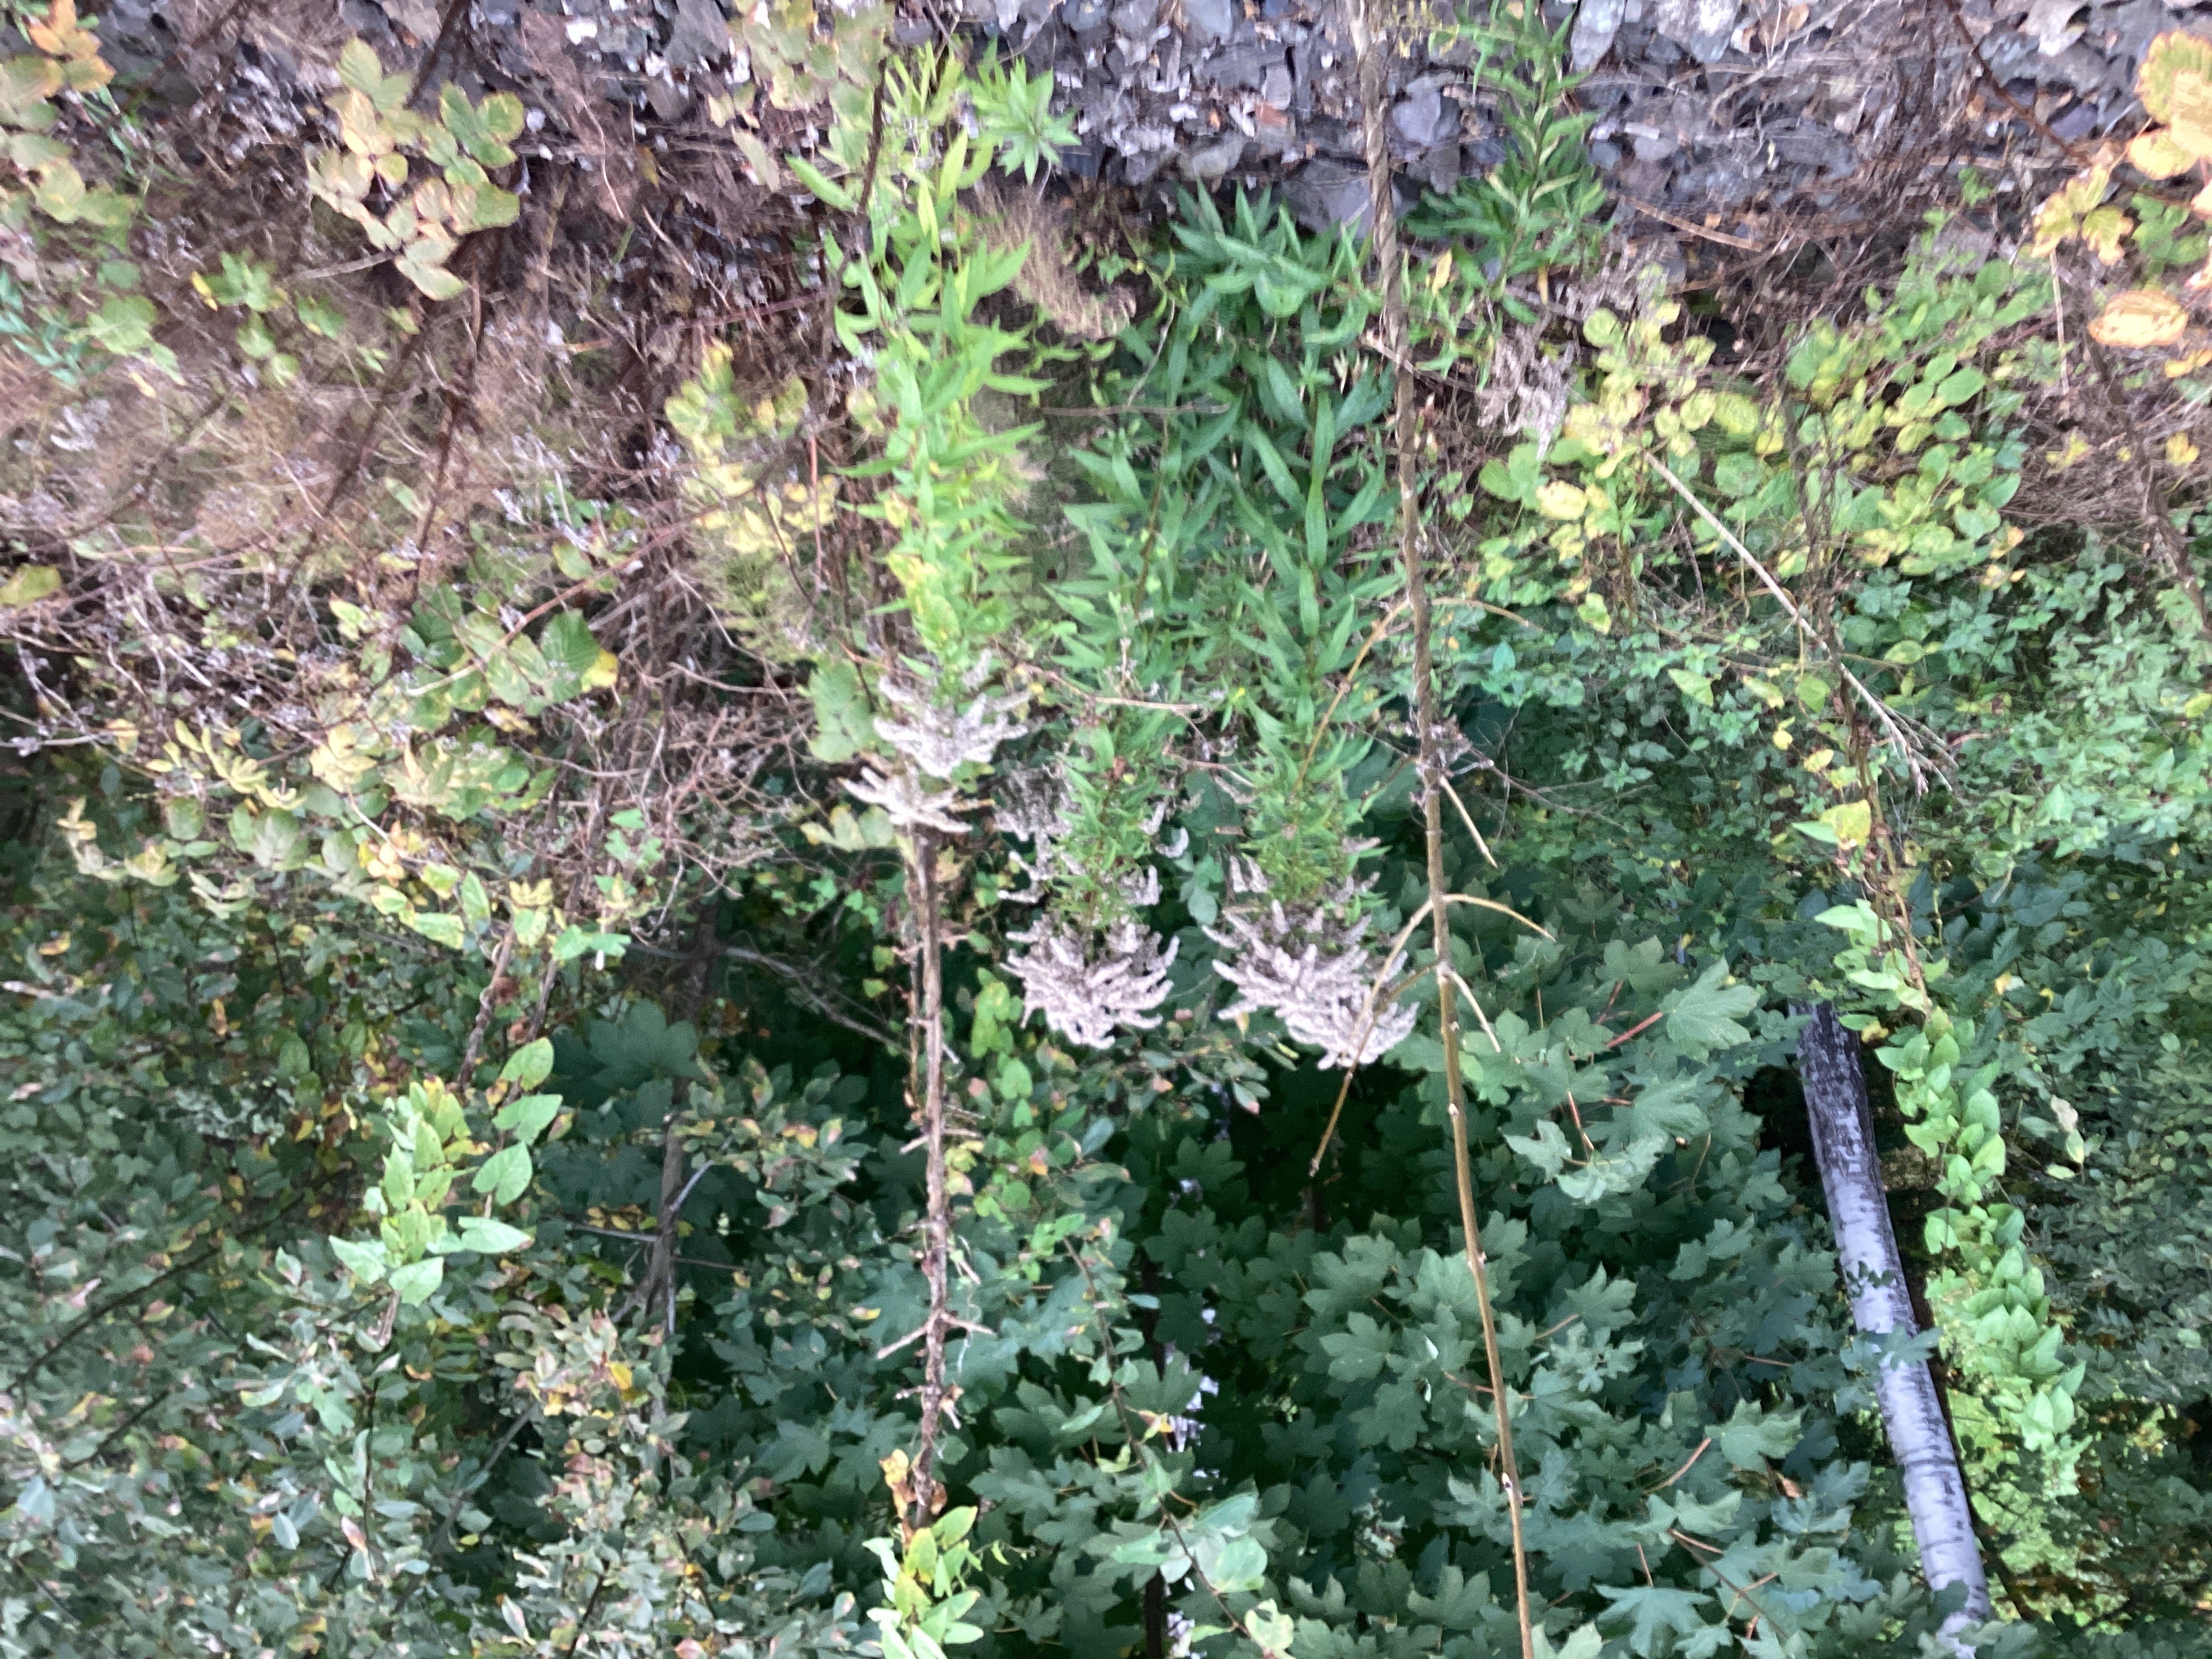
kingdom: Plantae
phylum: Tracheophyta
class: Magnoliopsida
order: Asterales
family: Asteraceae
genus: Solidago
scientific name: Solidago canadensis
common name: kanadagullris
